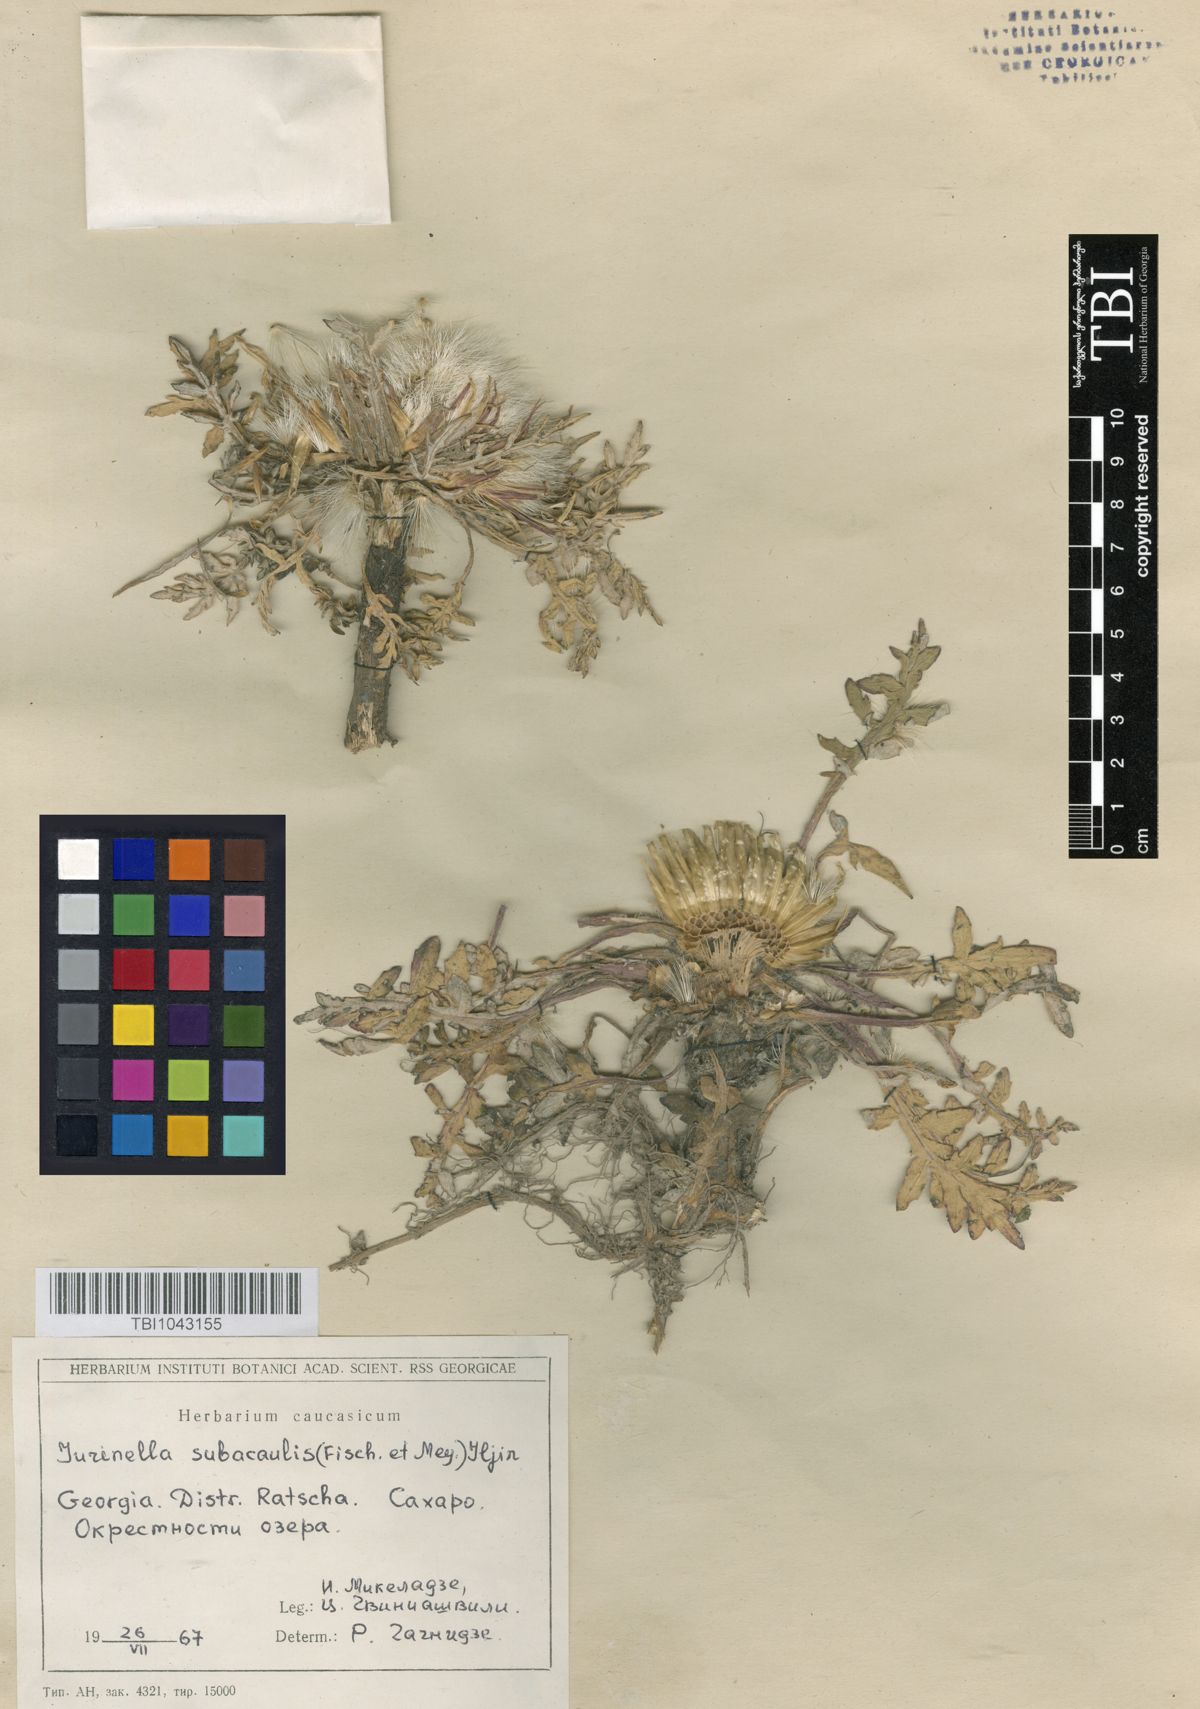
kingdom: Plantae
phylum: Tracheophyta
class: Magnoliopsida
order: Asterales
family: Asteraceae
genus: Jurinea
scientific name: Jurinea moschus
